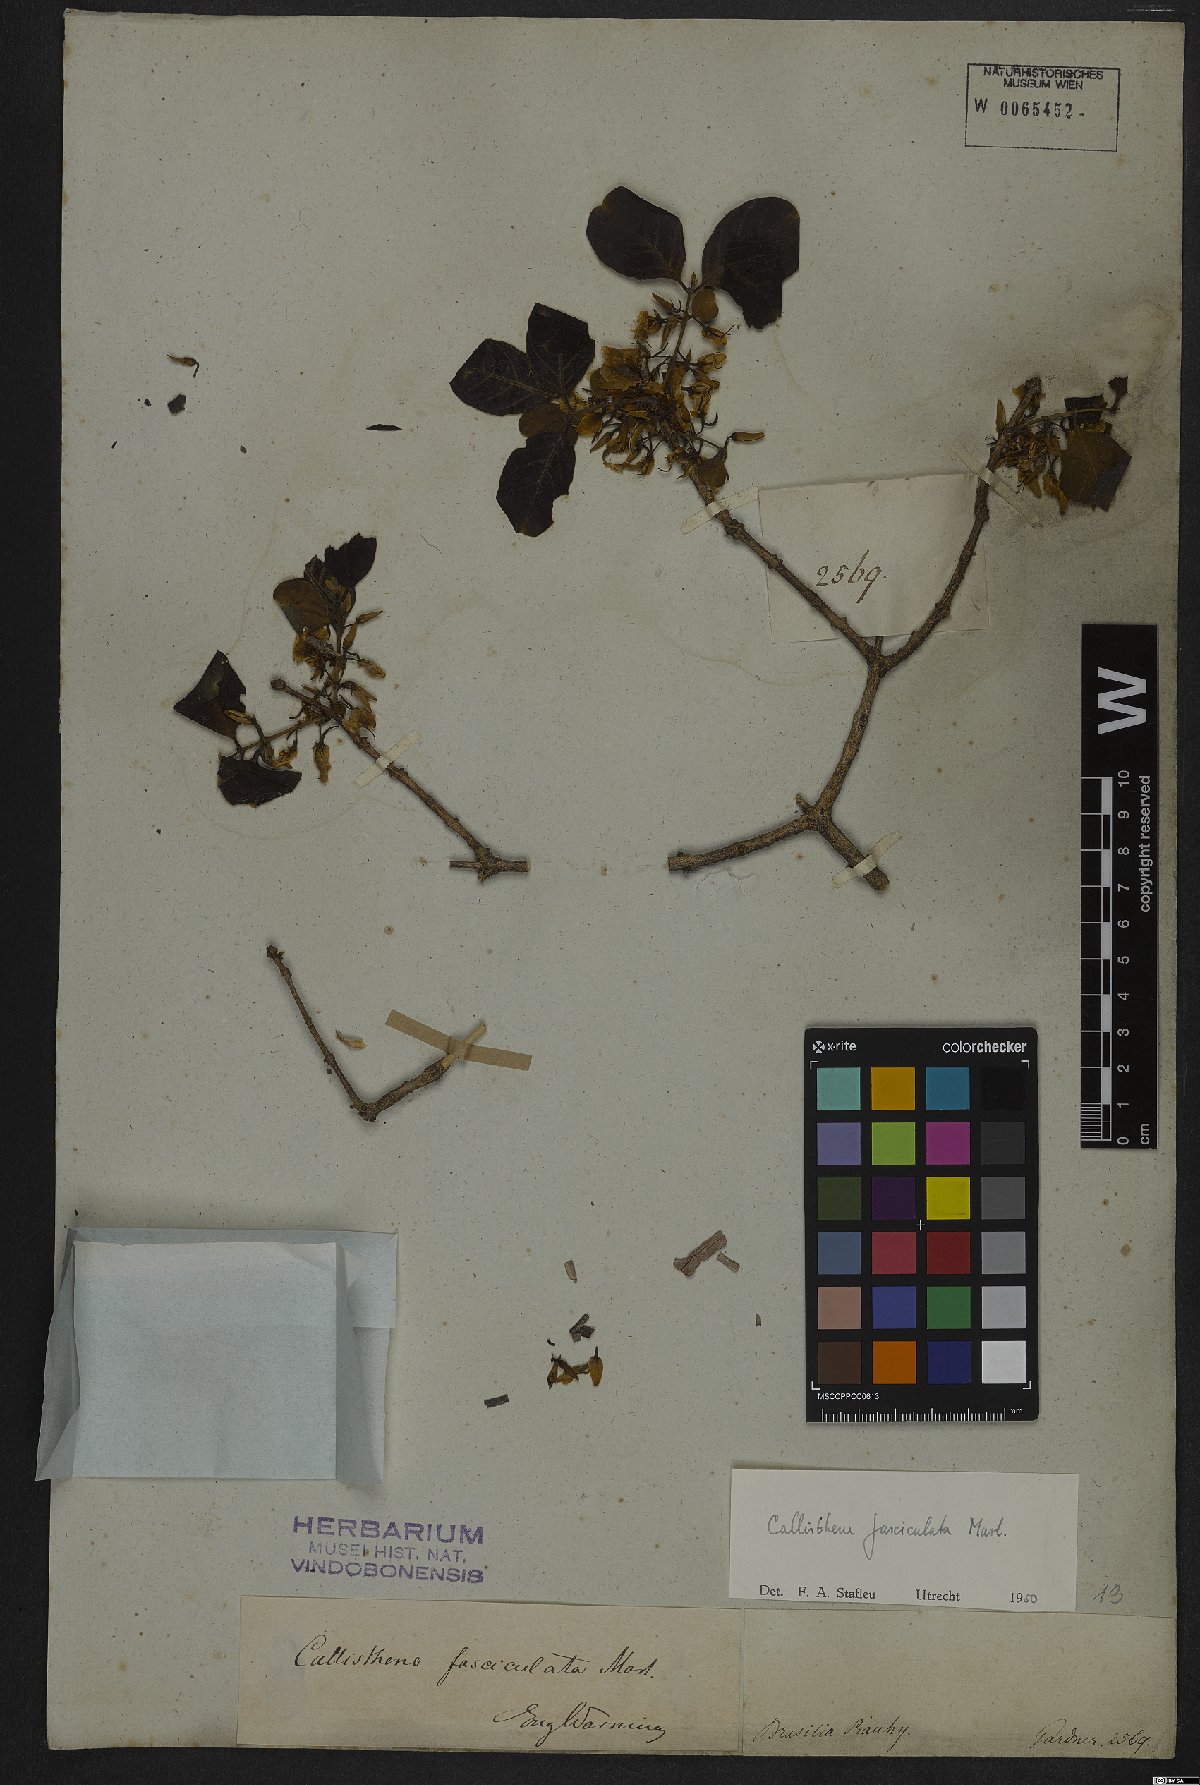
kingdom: Plantae
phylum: Tracheophyta
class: Magnoliopsida
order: Myrtales
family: Vochysiaceae
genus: Callisthene
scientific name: Callisthene fasciculata
